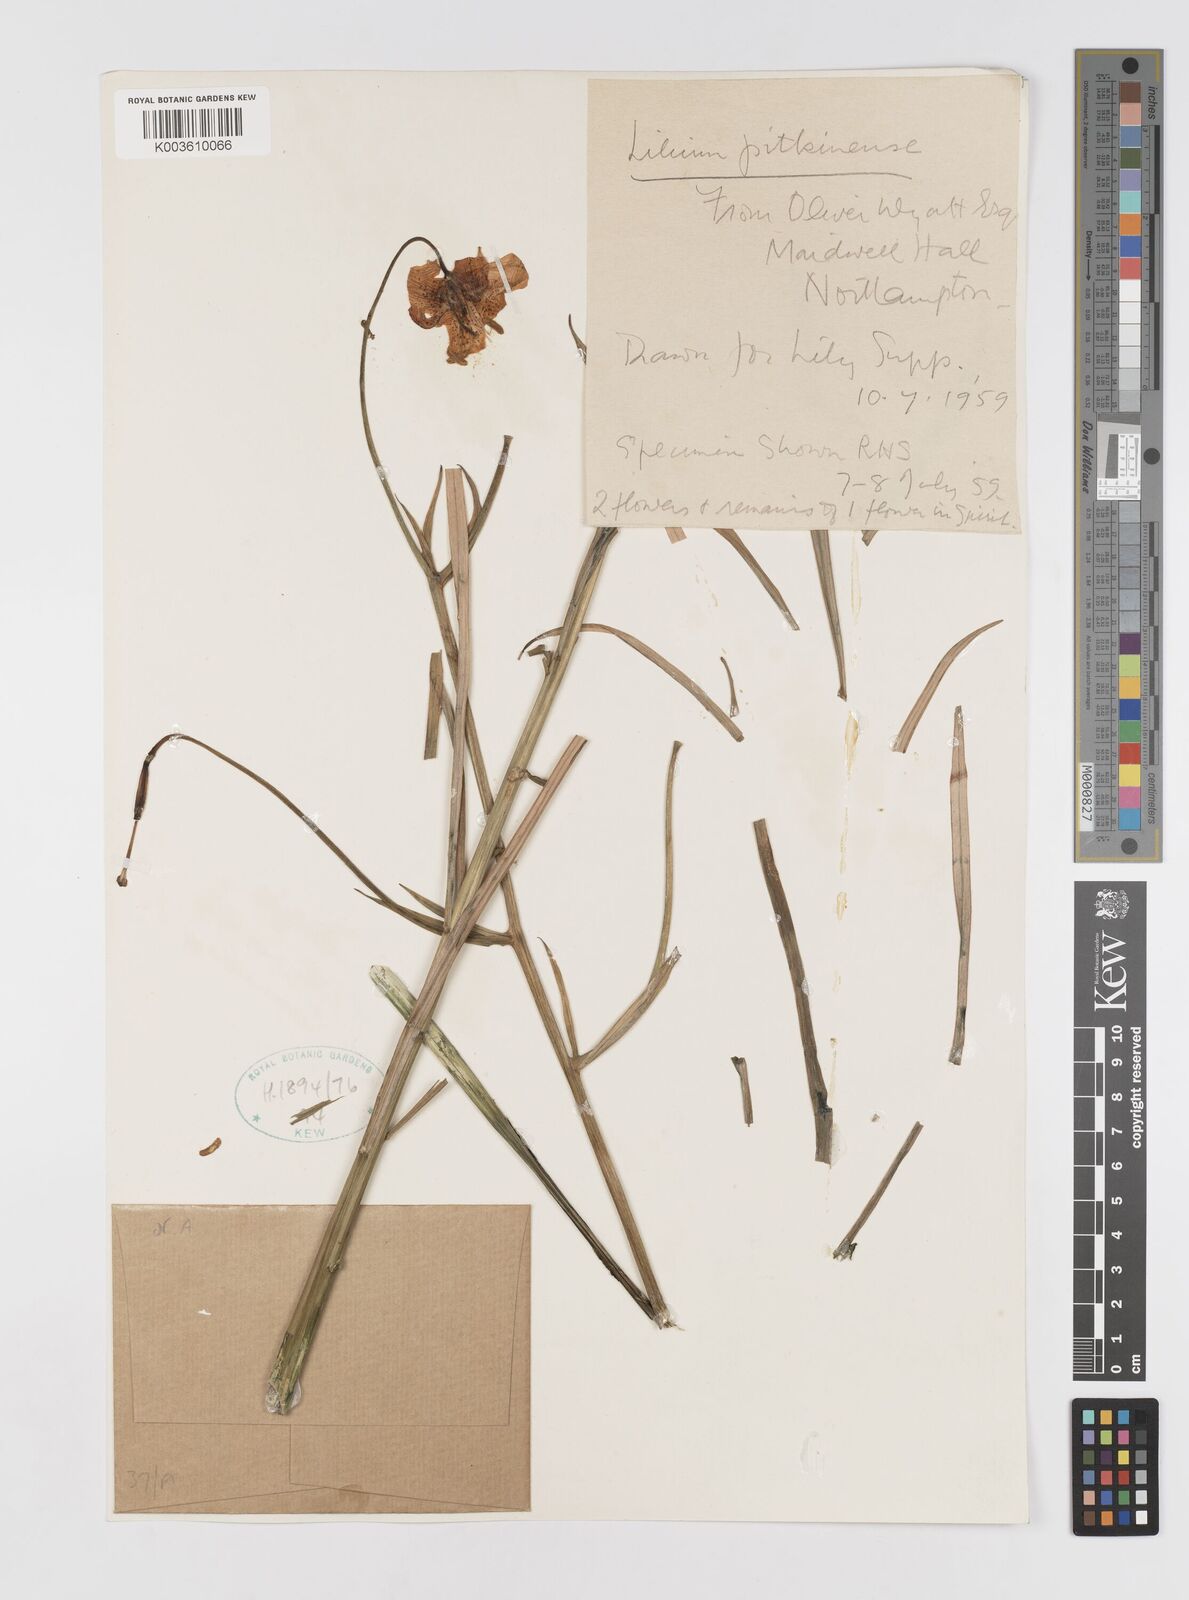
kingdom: Plantae
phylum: Tracheophyta
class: Liliopsida
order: Liliales
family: Liliaceae
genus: Lilium
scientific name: Lilium pardalinum
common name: Panther lily
